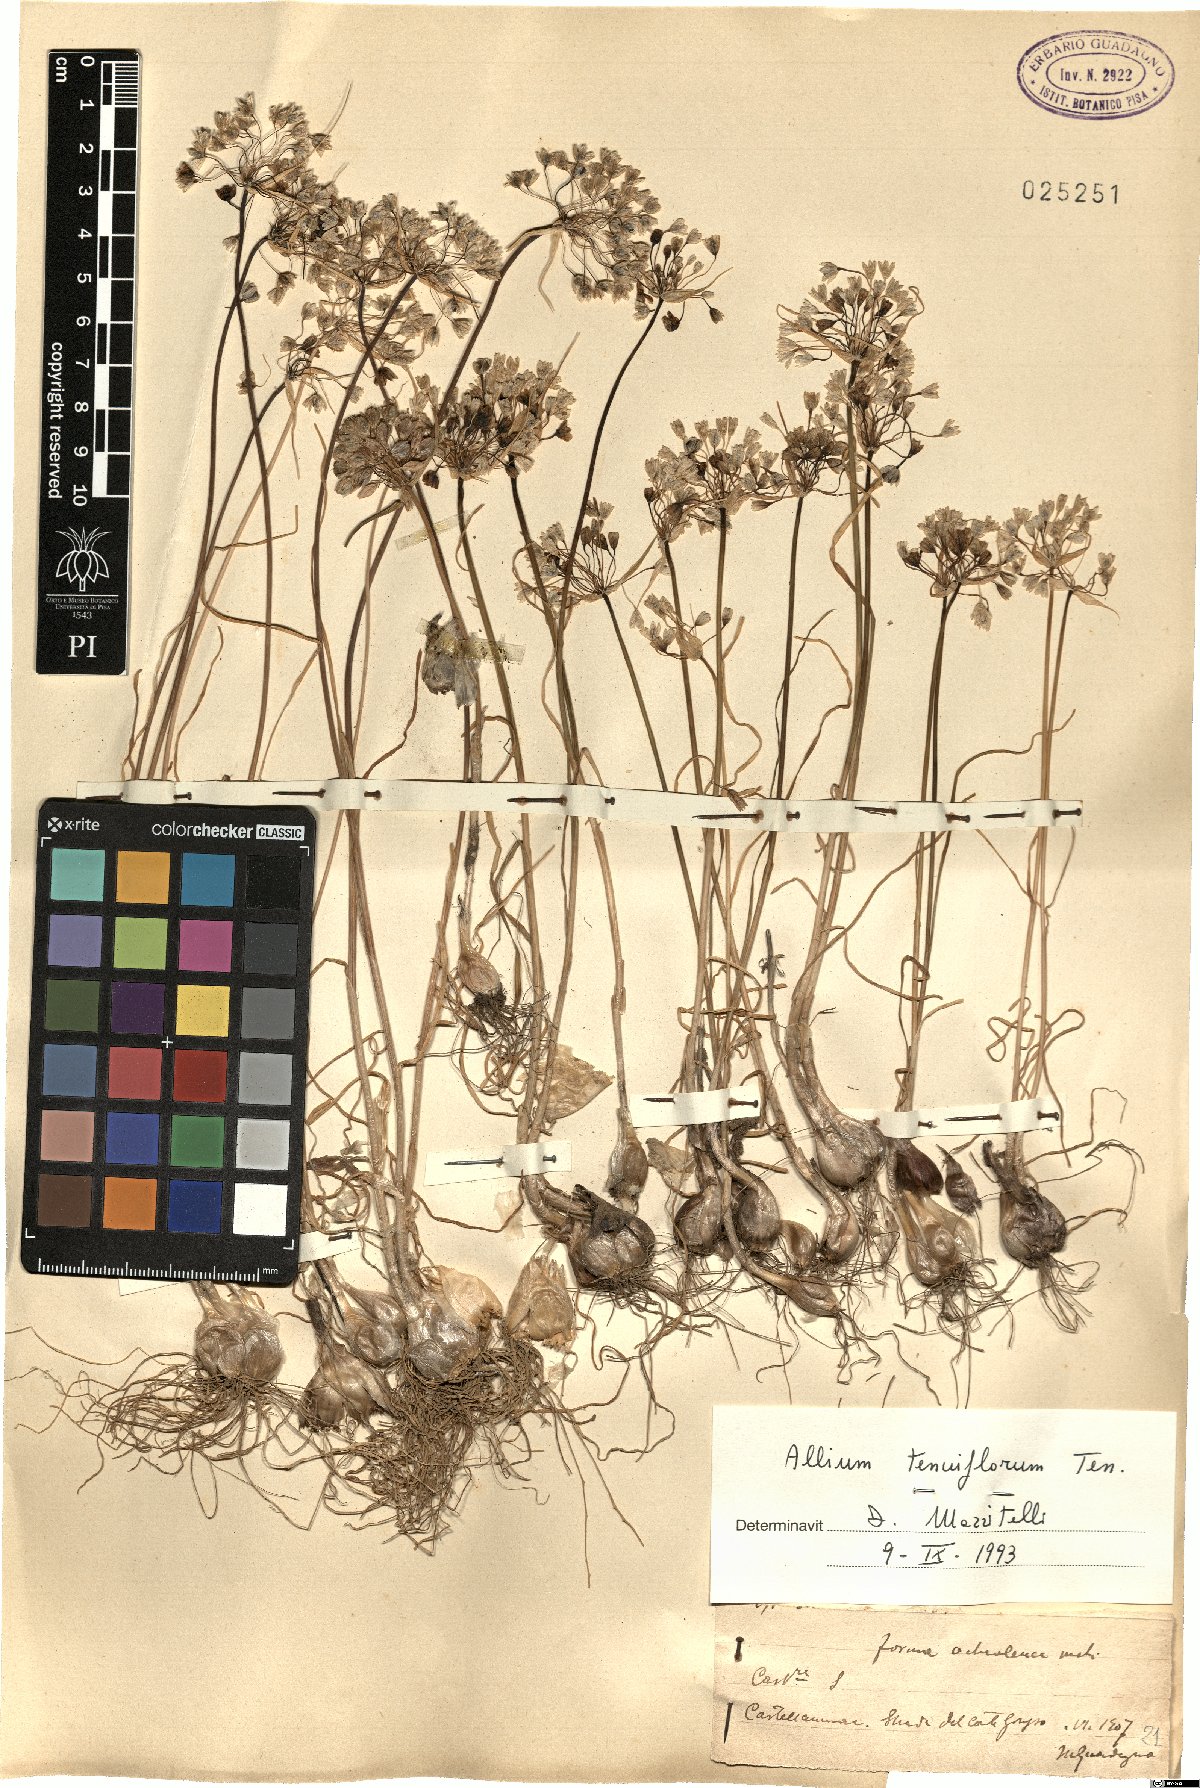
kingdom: Plantae
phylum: Tracheophyta
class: Liliopsida
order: Asparagales
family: Amaryllidaceae
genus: Allium
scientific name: Allium tenuiflorum
